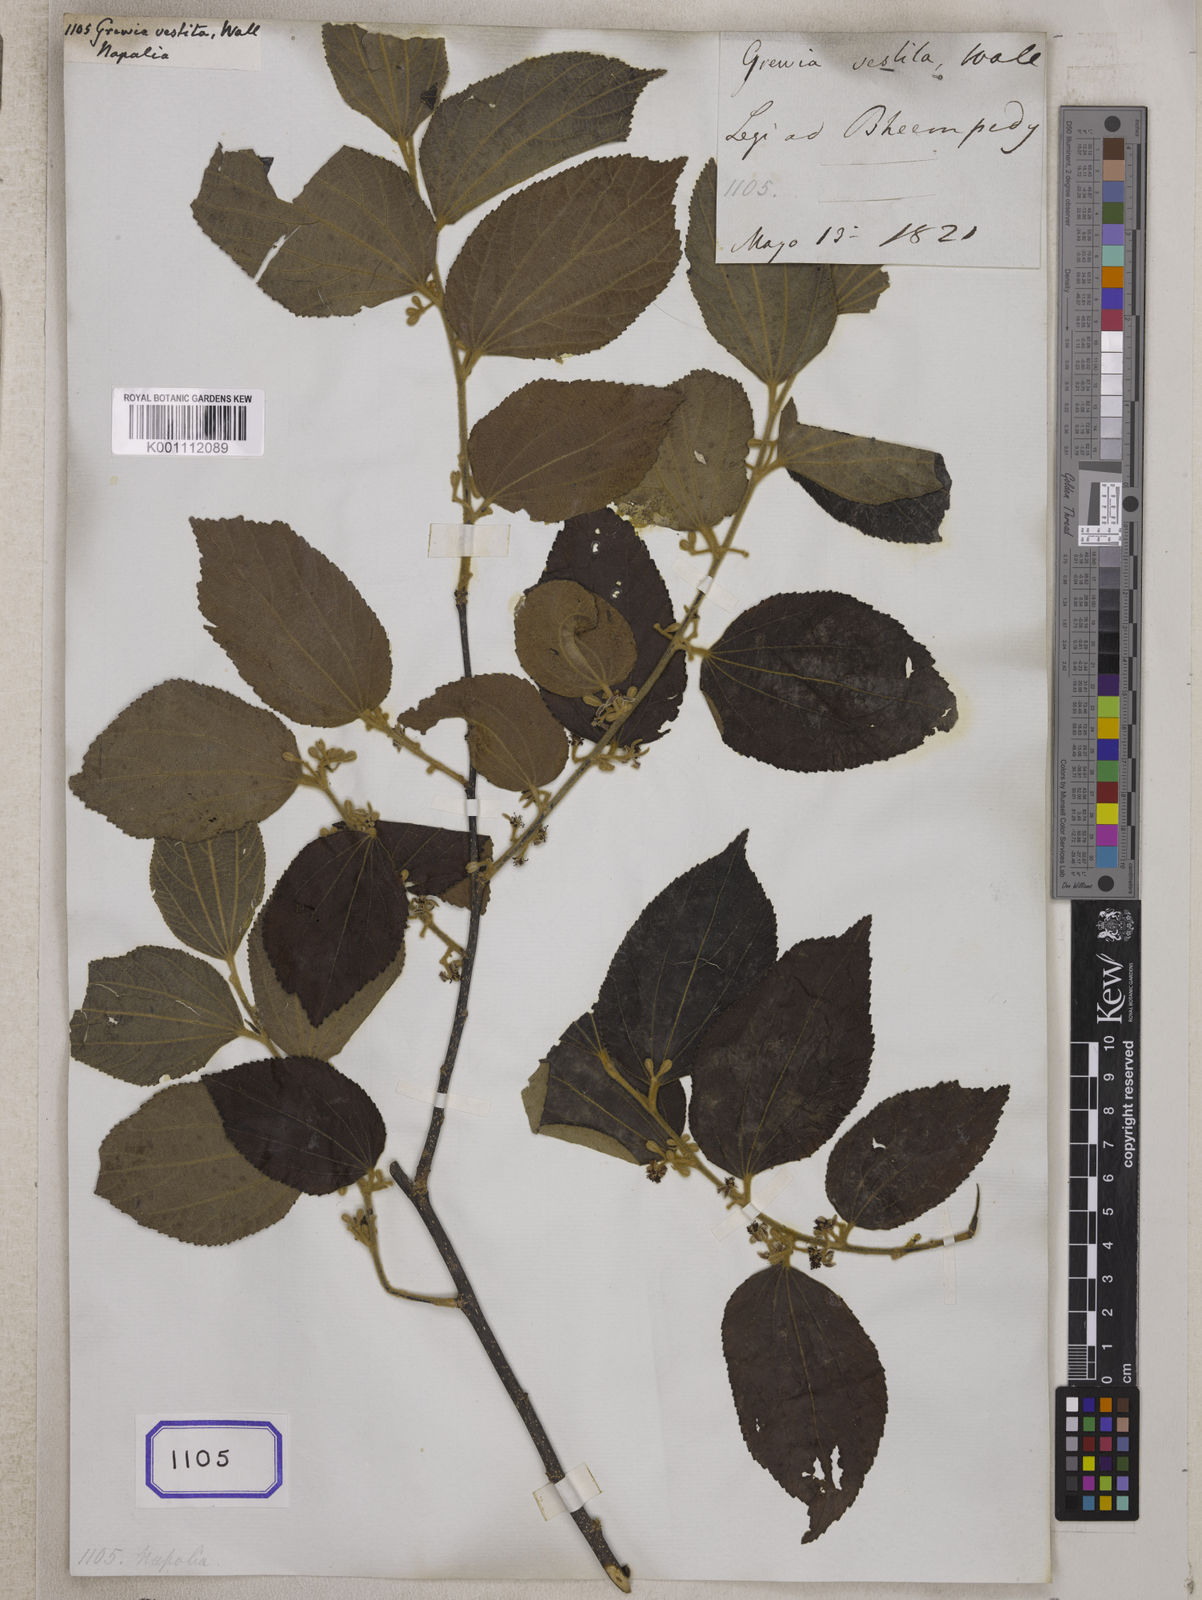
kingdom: Plantae
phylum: Tracheophyta
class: Magnoliopsida
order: Malvales
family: Malvaceae
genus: Grewia
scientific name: Grewia
